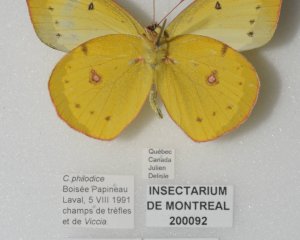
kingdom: Animalia
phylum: Arthropoda
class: Insecta
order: Lepidoptera
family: Pieridae
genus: Colias
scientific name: Colias philodice
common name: Clouded Sulphur
